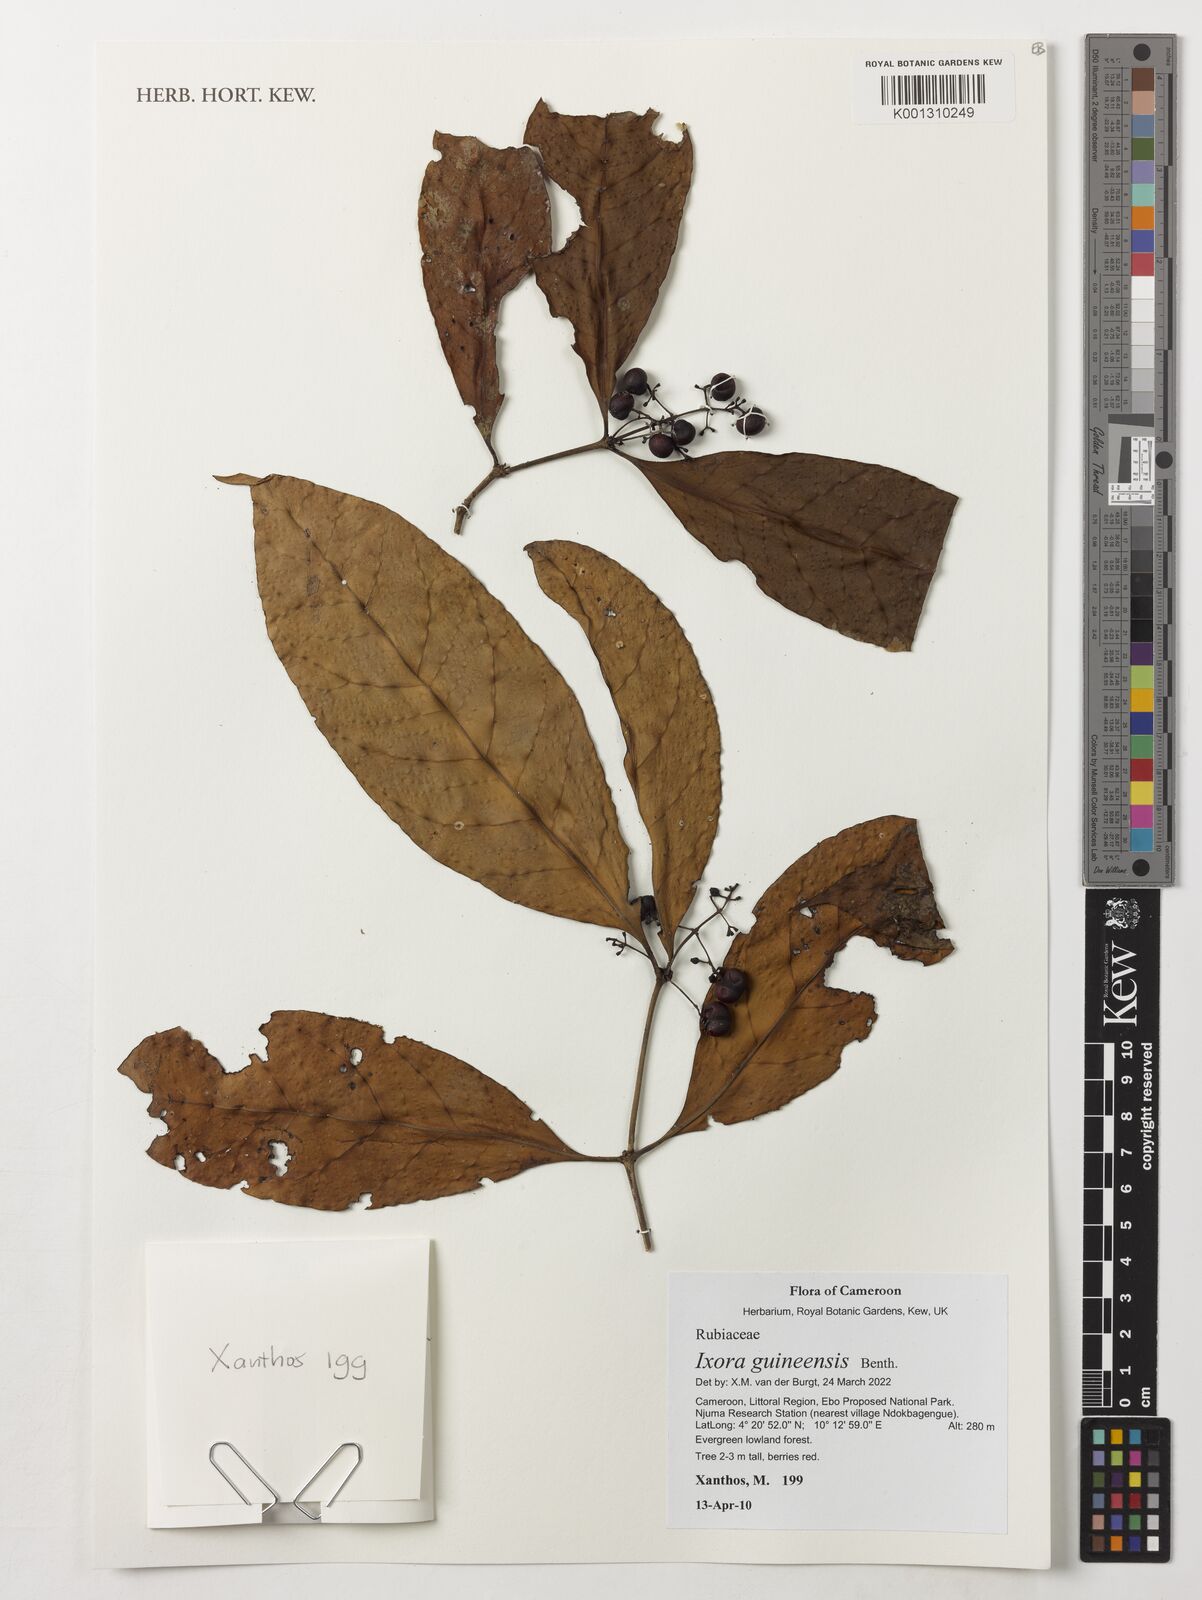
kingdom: Plantae
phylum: Tracheophyta
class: Magnoliopsida
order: Gentianales
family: Rubiaceae
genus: Faramea
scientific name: Faramea lourteigiana
